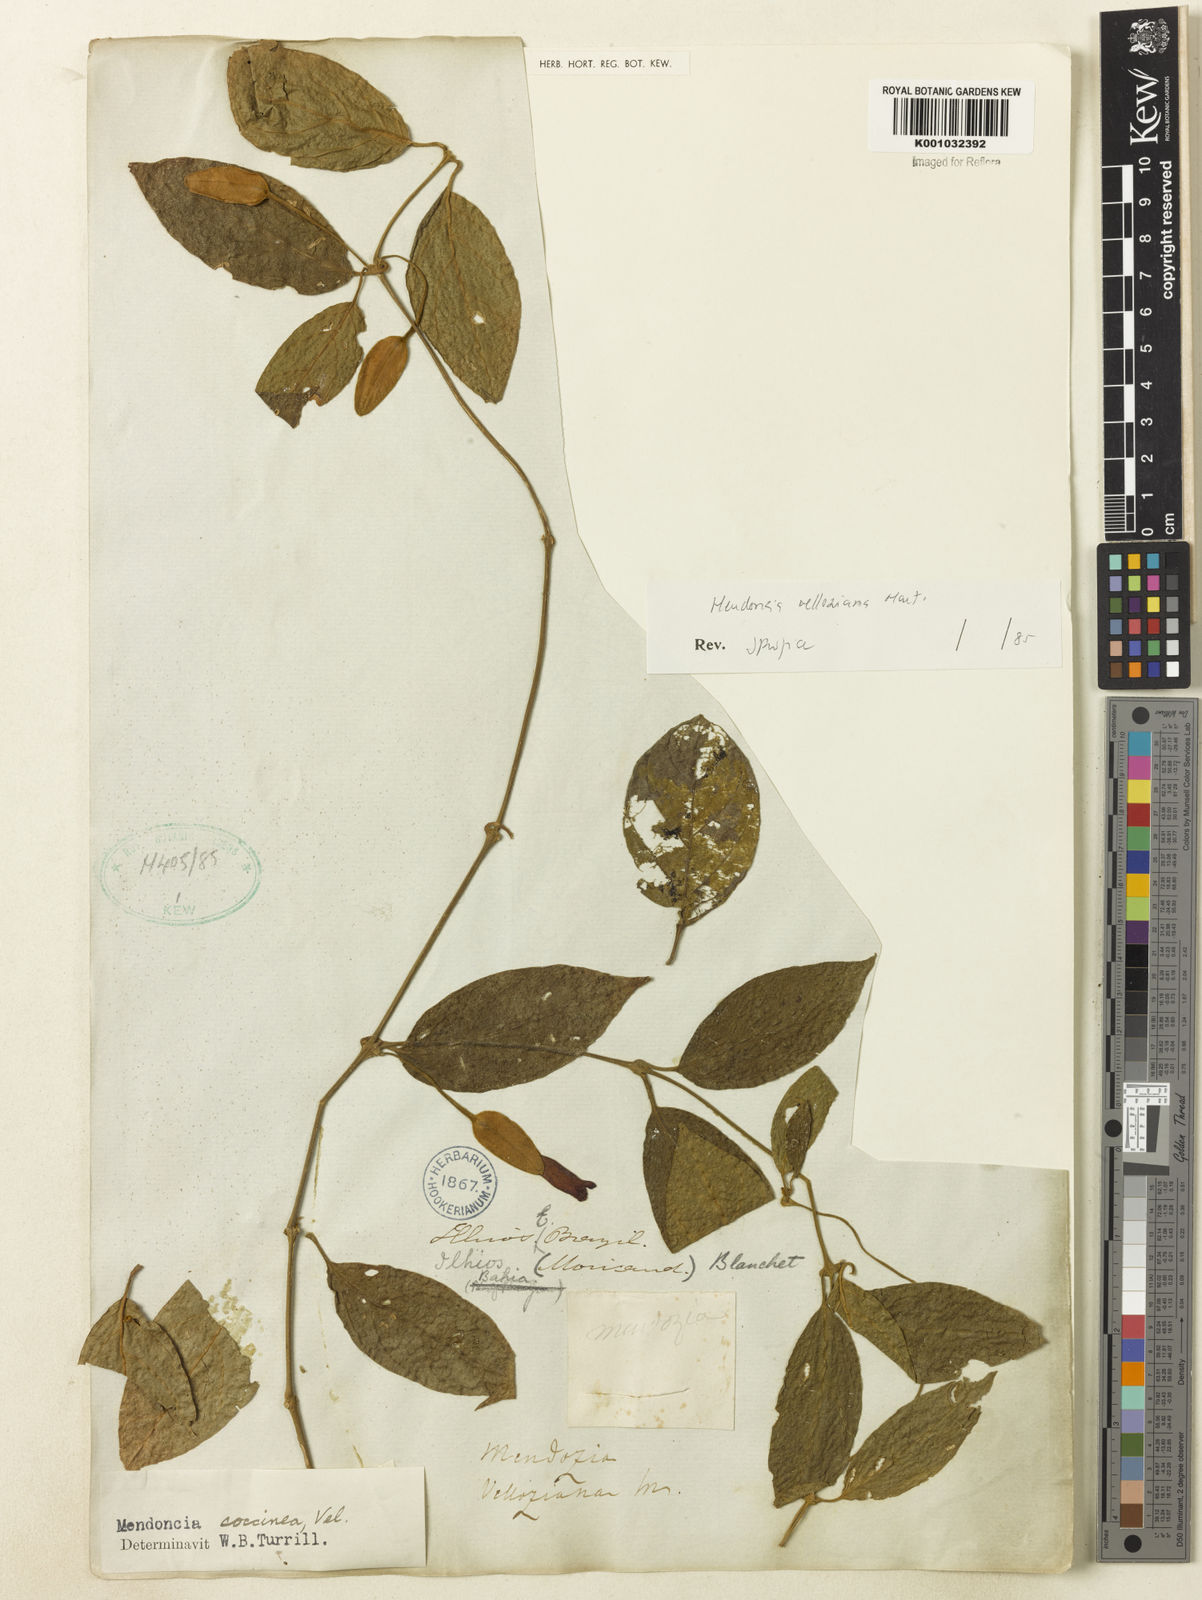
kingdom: Plantae
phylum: Tracheophyta
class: Magnoliopsida
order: Lamiales
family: Acanthaceae
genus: Mendoncia
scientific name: Mendoncia velloziana
